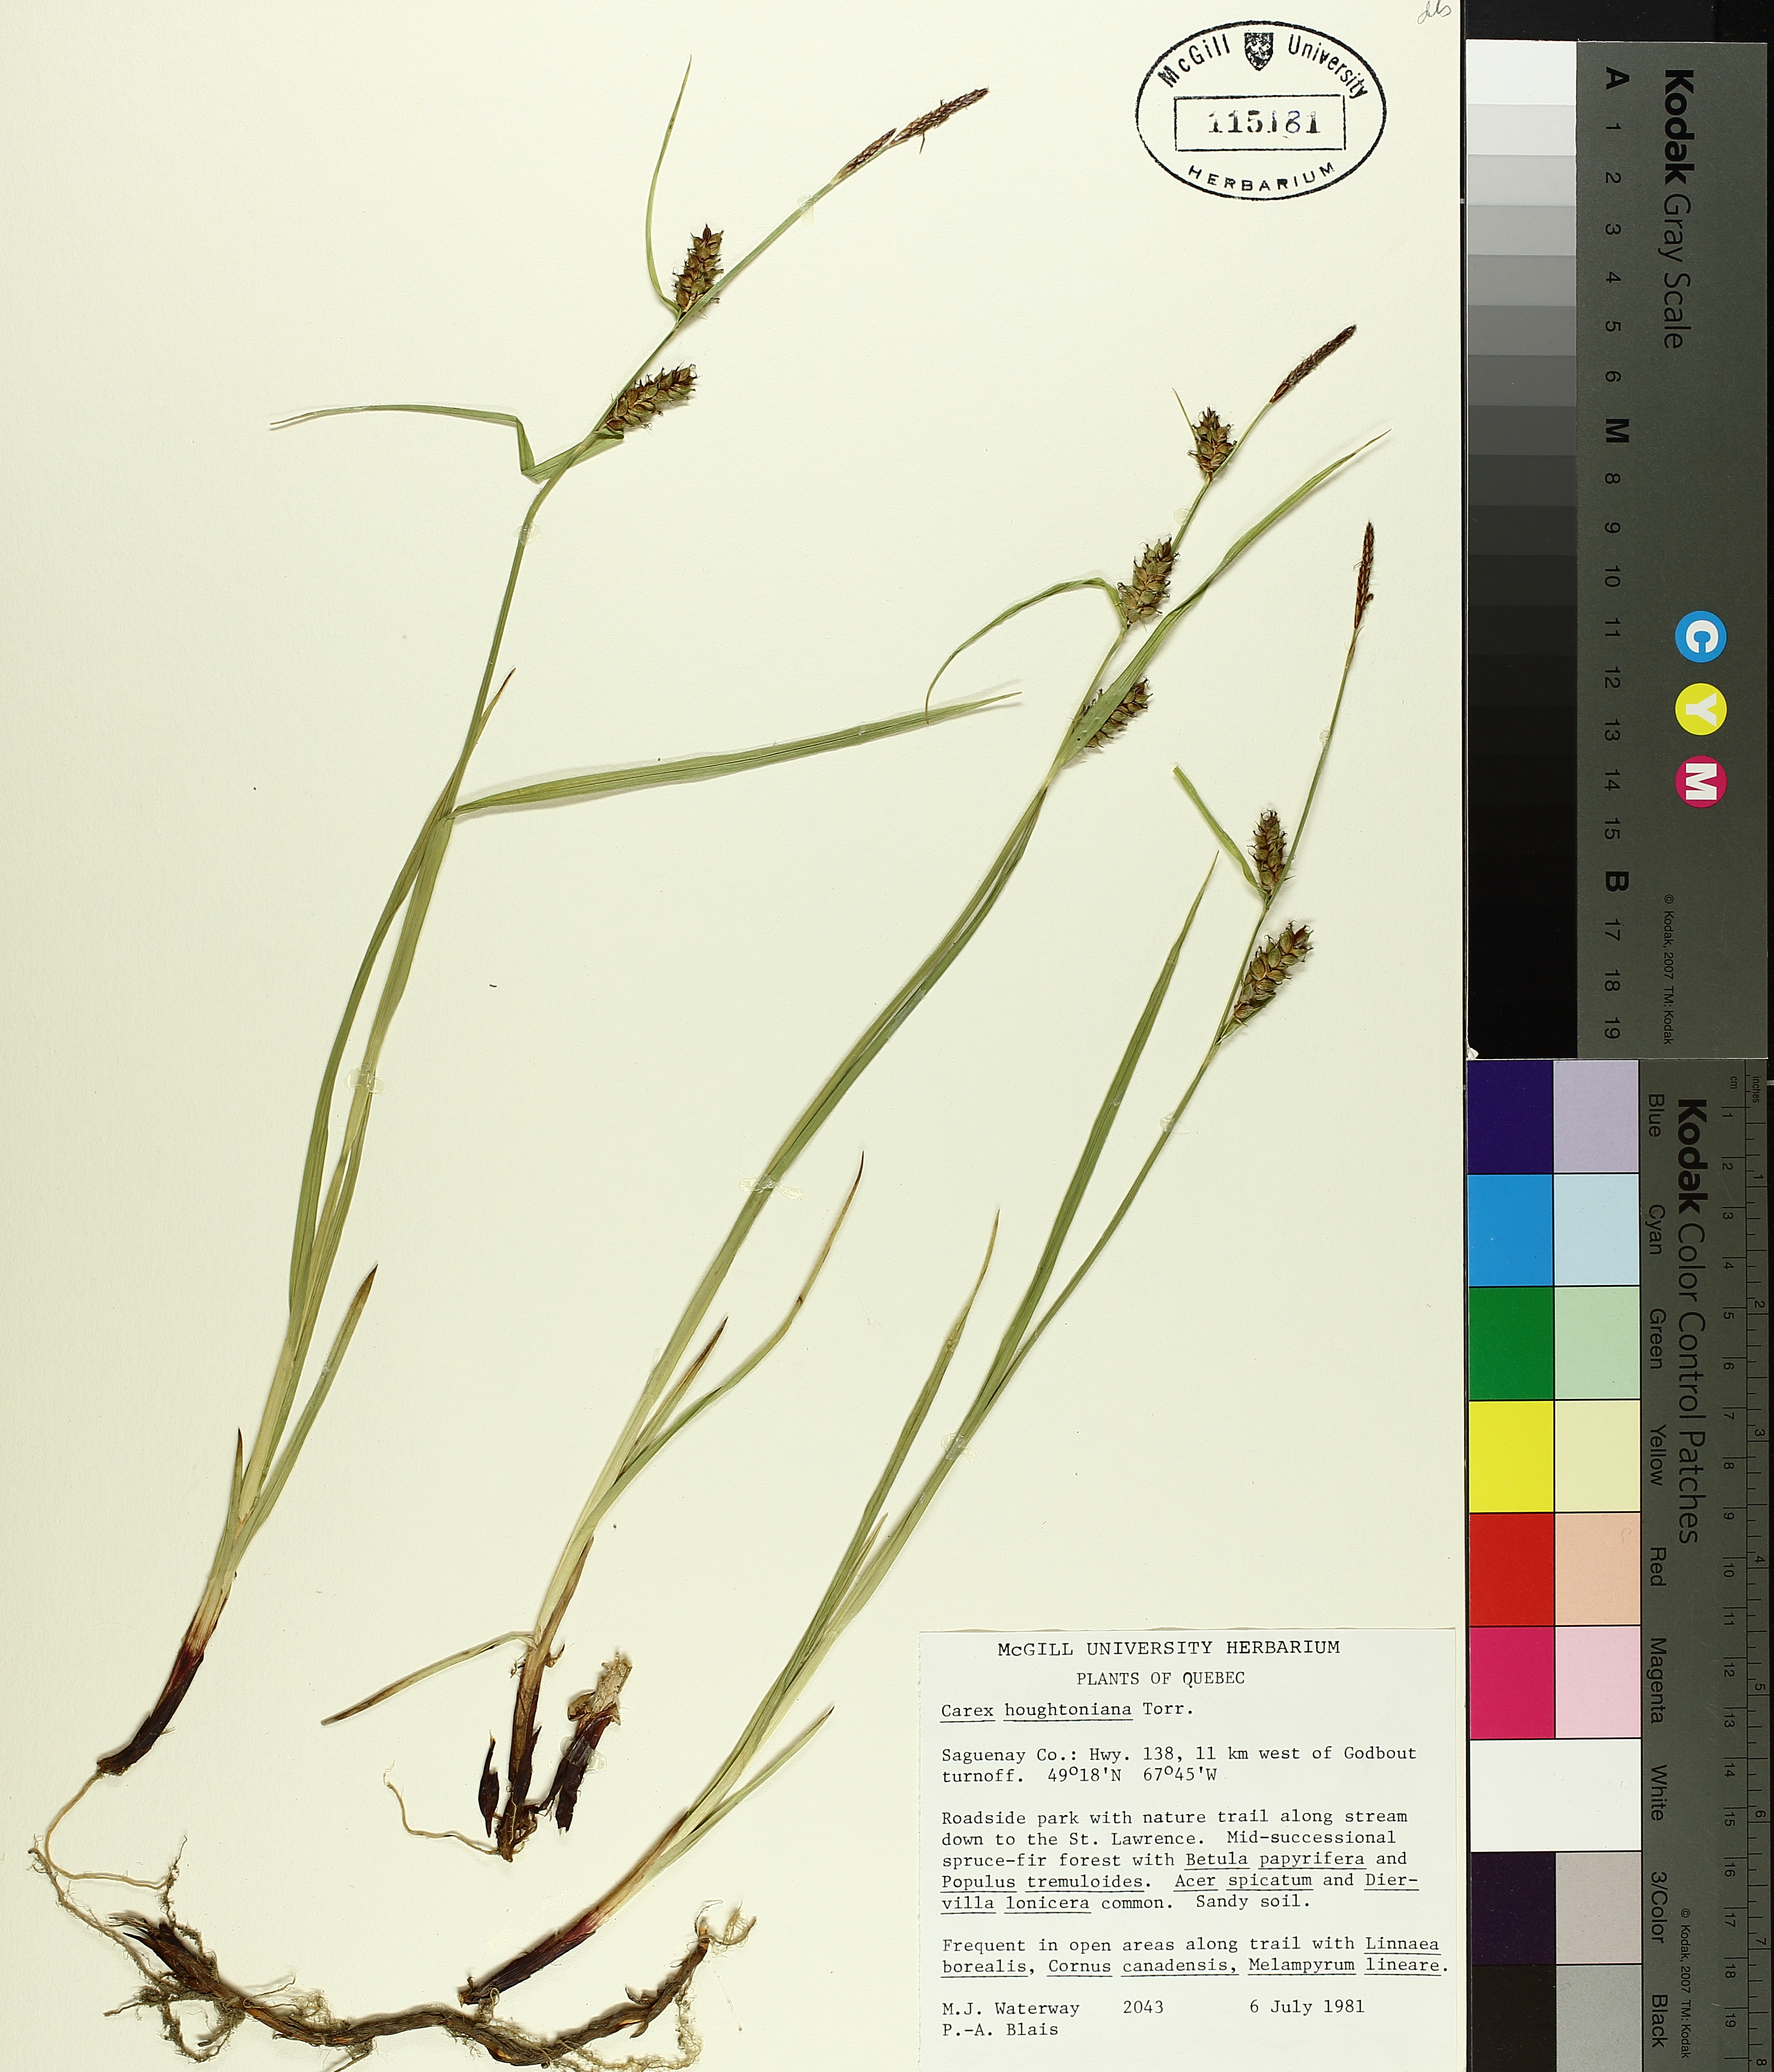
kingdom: Plantae
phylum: Tracheophyta
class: Liliopsida
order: Poales
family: Cyperaceae
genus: Carex
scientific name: Carex houghtoniana
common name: Houghton's sedge
